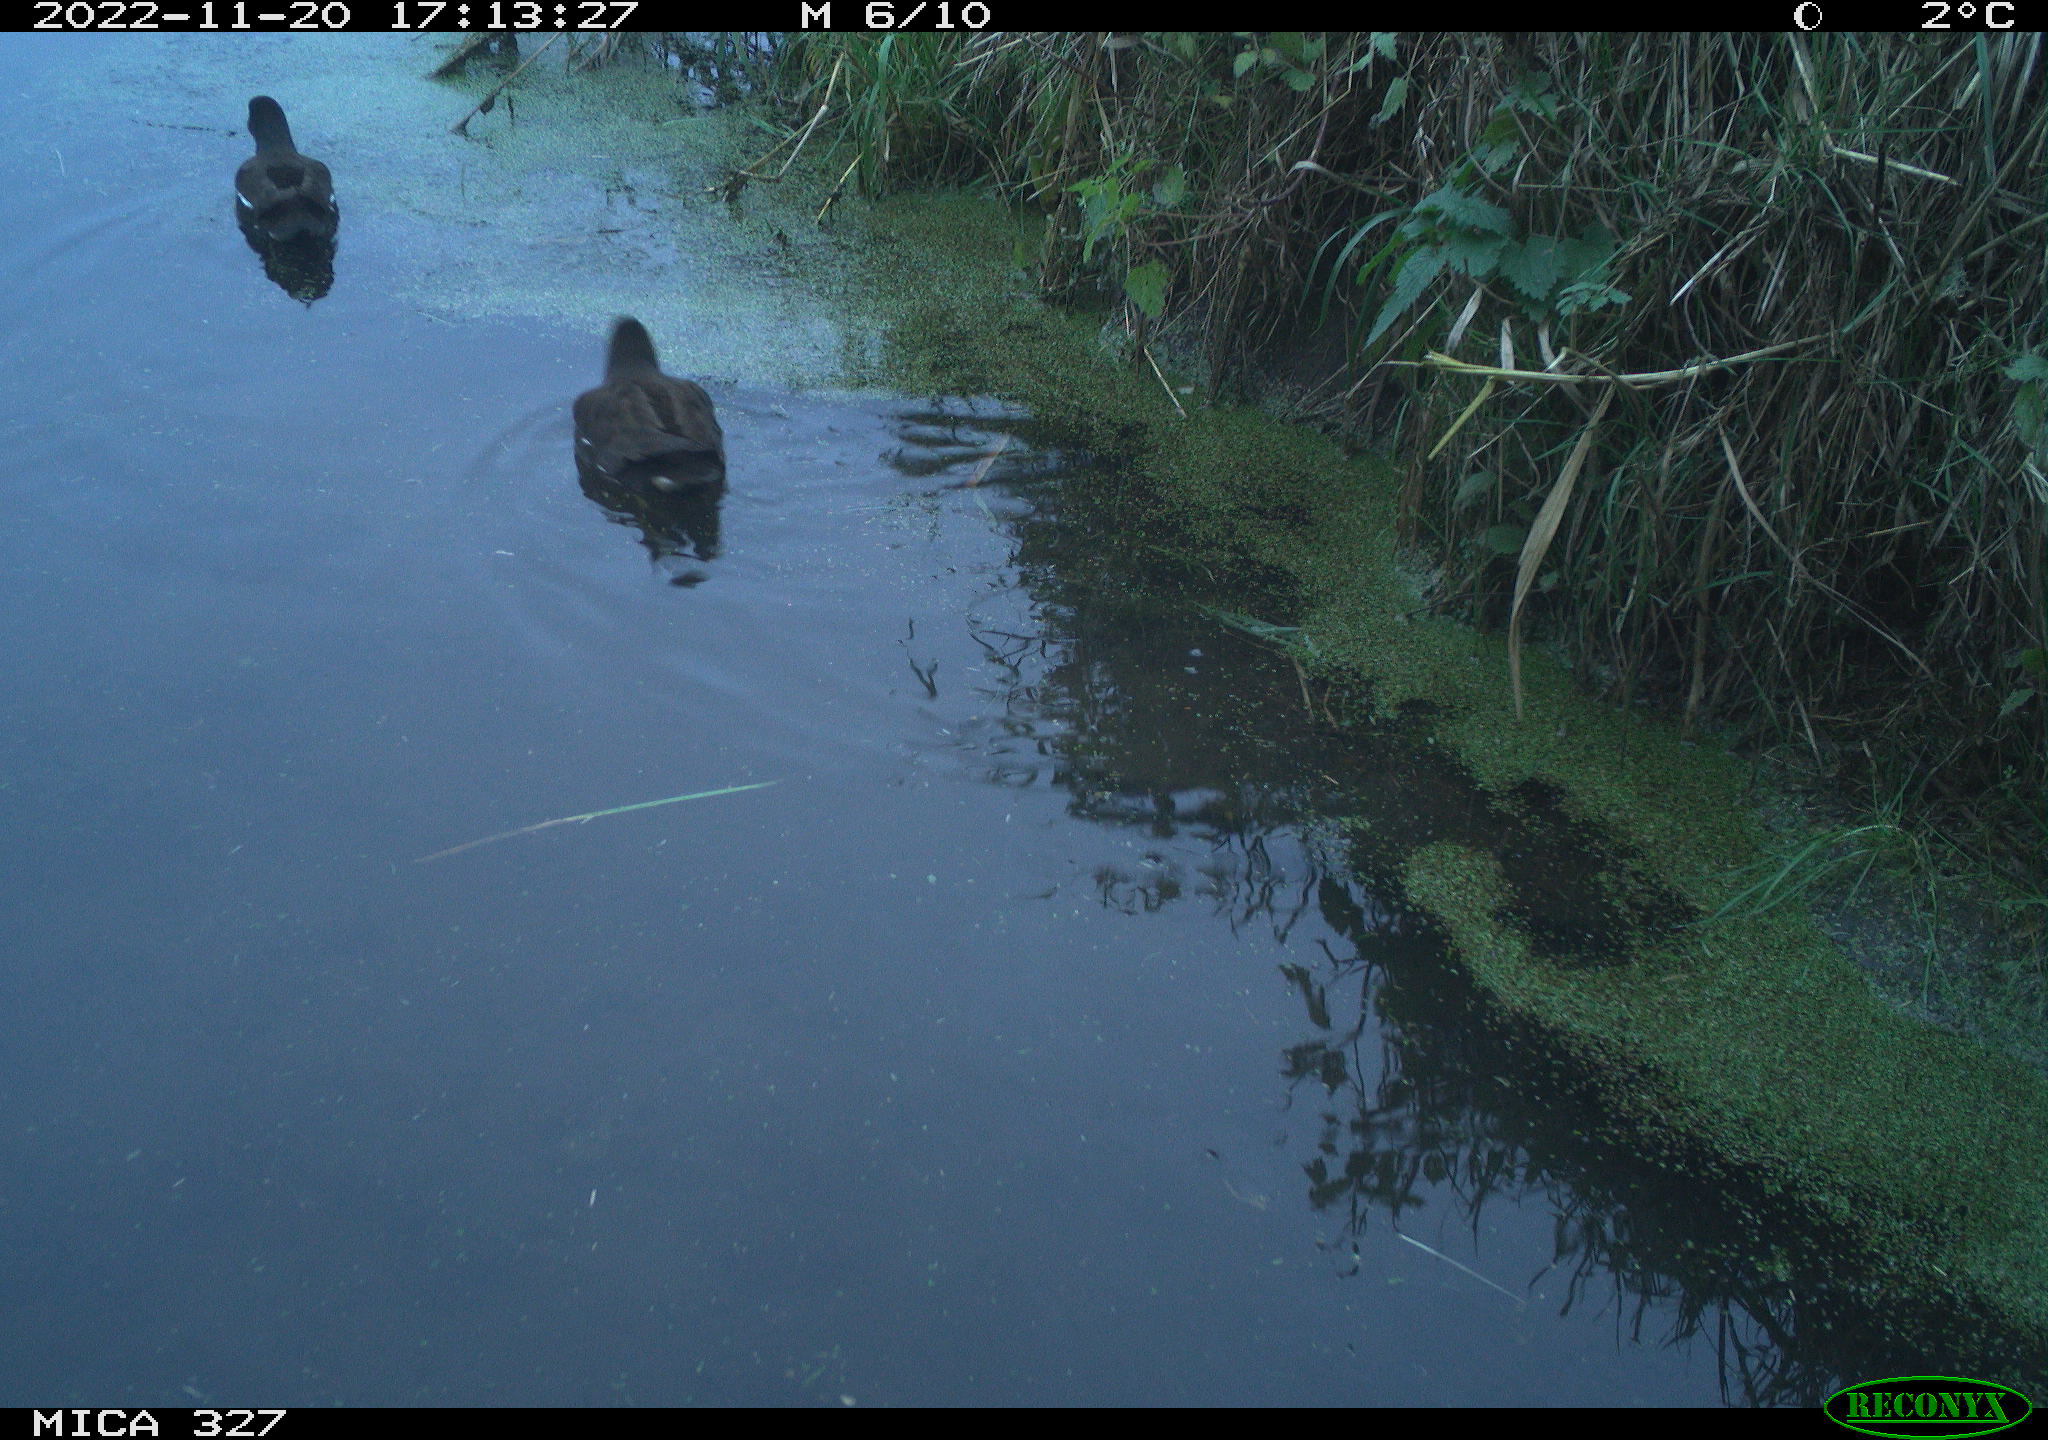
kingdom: Animalia
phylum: Chordata
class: Aves
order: Gruiformes
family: Rallidae
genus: Gallinula
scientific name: Gallinula chloropus
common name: Common moorhen
